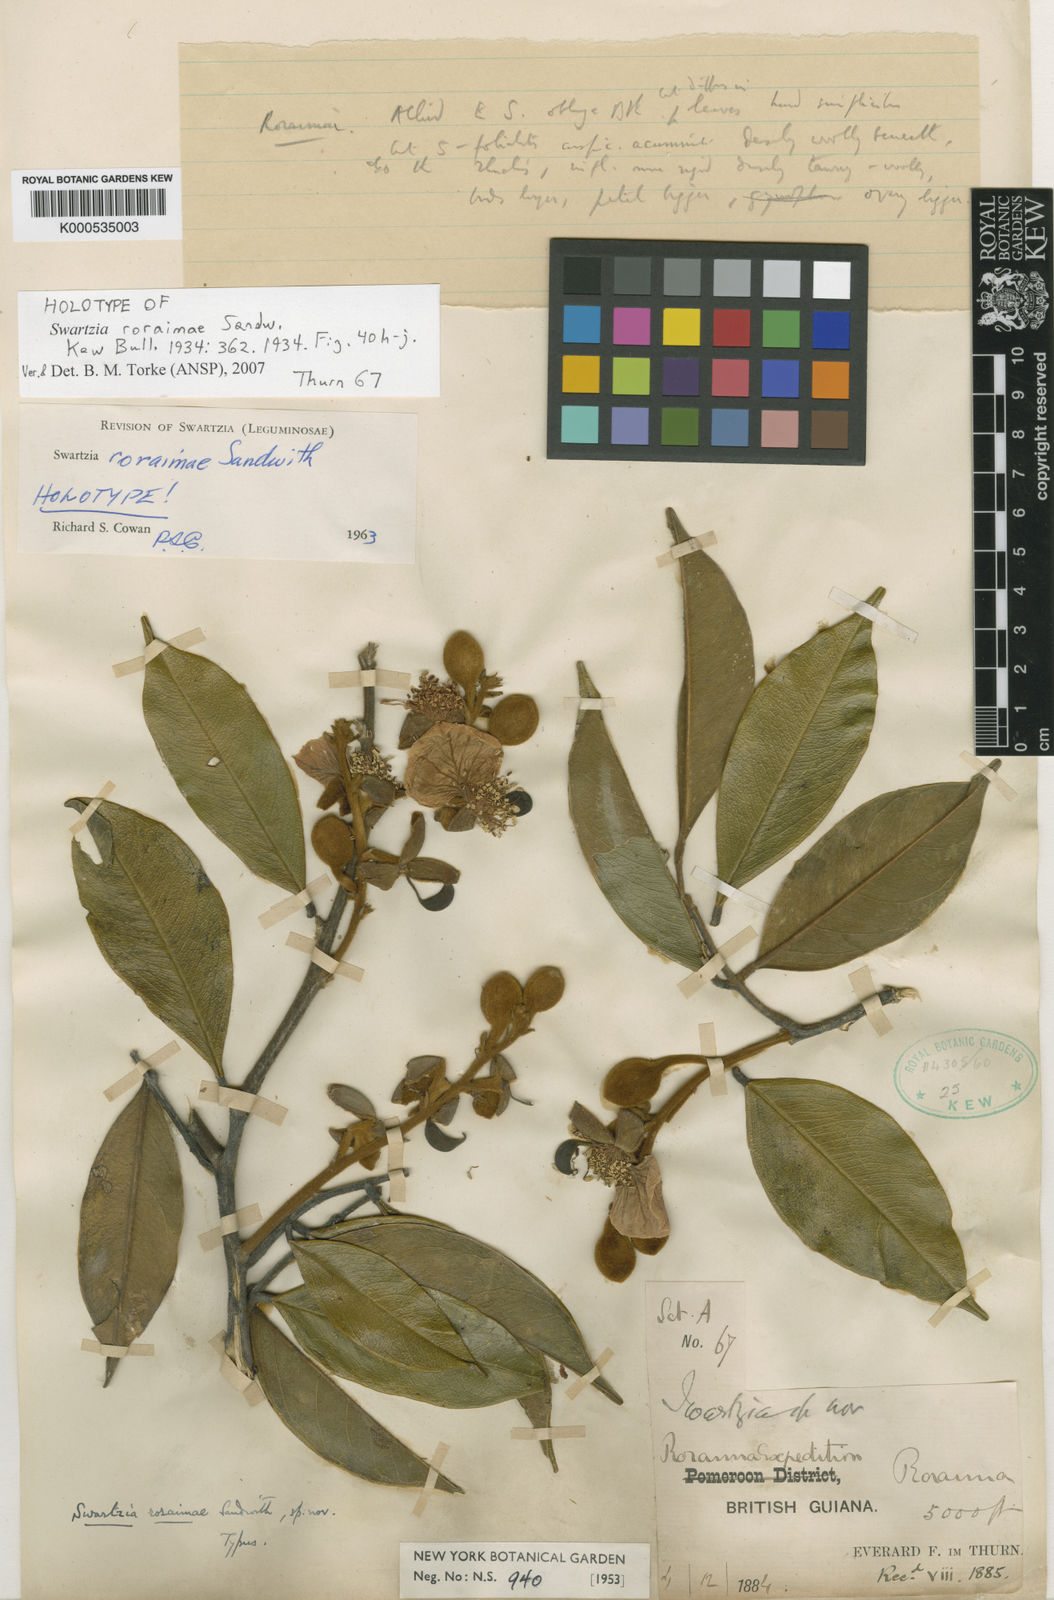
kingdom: Plantae
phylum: Tracheophyta
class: Magnoliopsida
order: Fabales
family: Fabaceae
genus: Swartzia
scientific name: Swartzia roraimae
